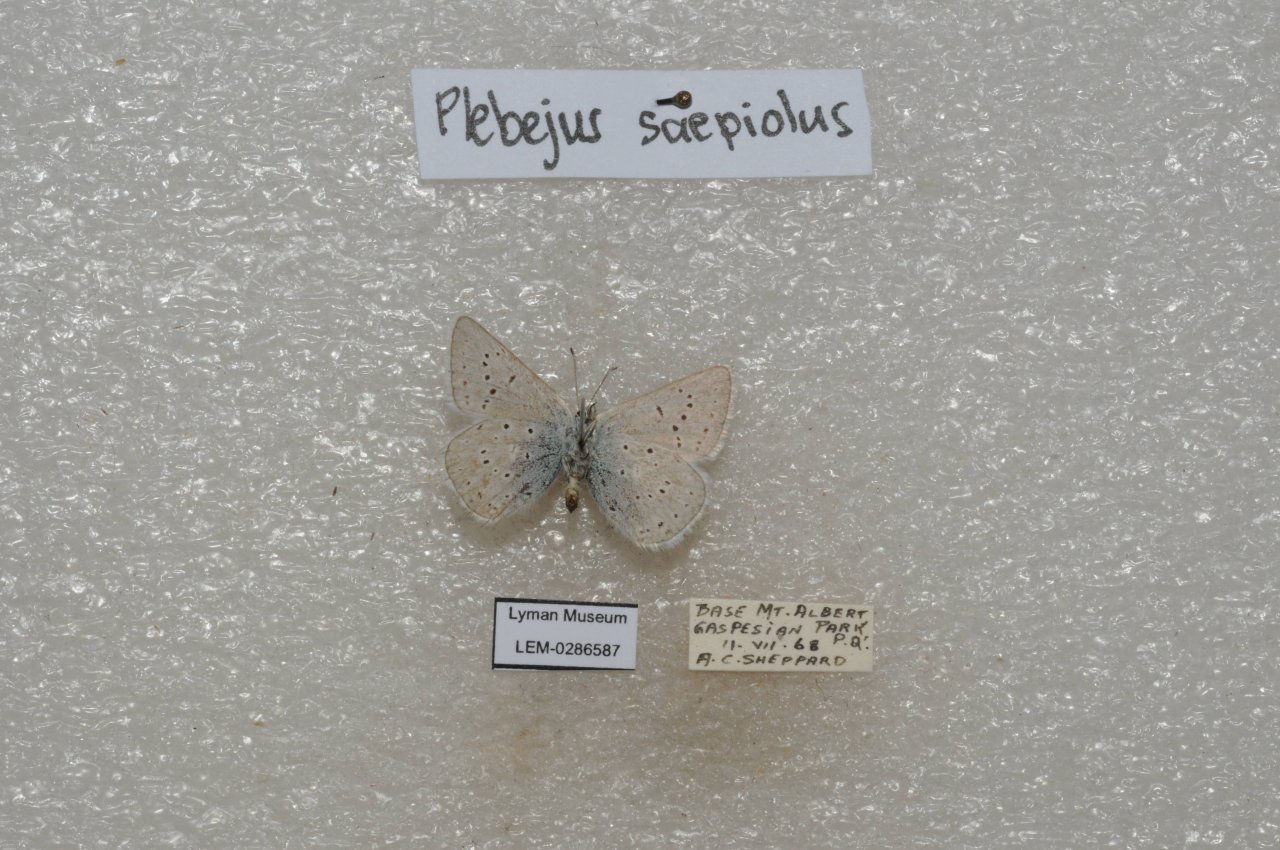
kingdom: Animalia
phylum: Arthropoda
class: Insecta
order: Lepidoptera
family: Lycaenidae
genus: Plebejus
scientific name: Plebejus saepiolus
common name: Greenish Blue
